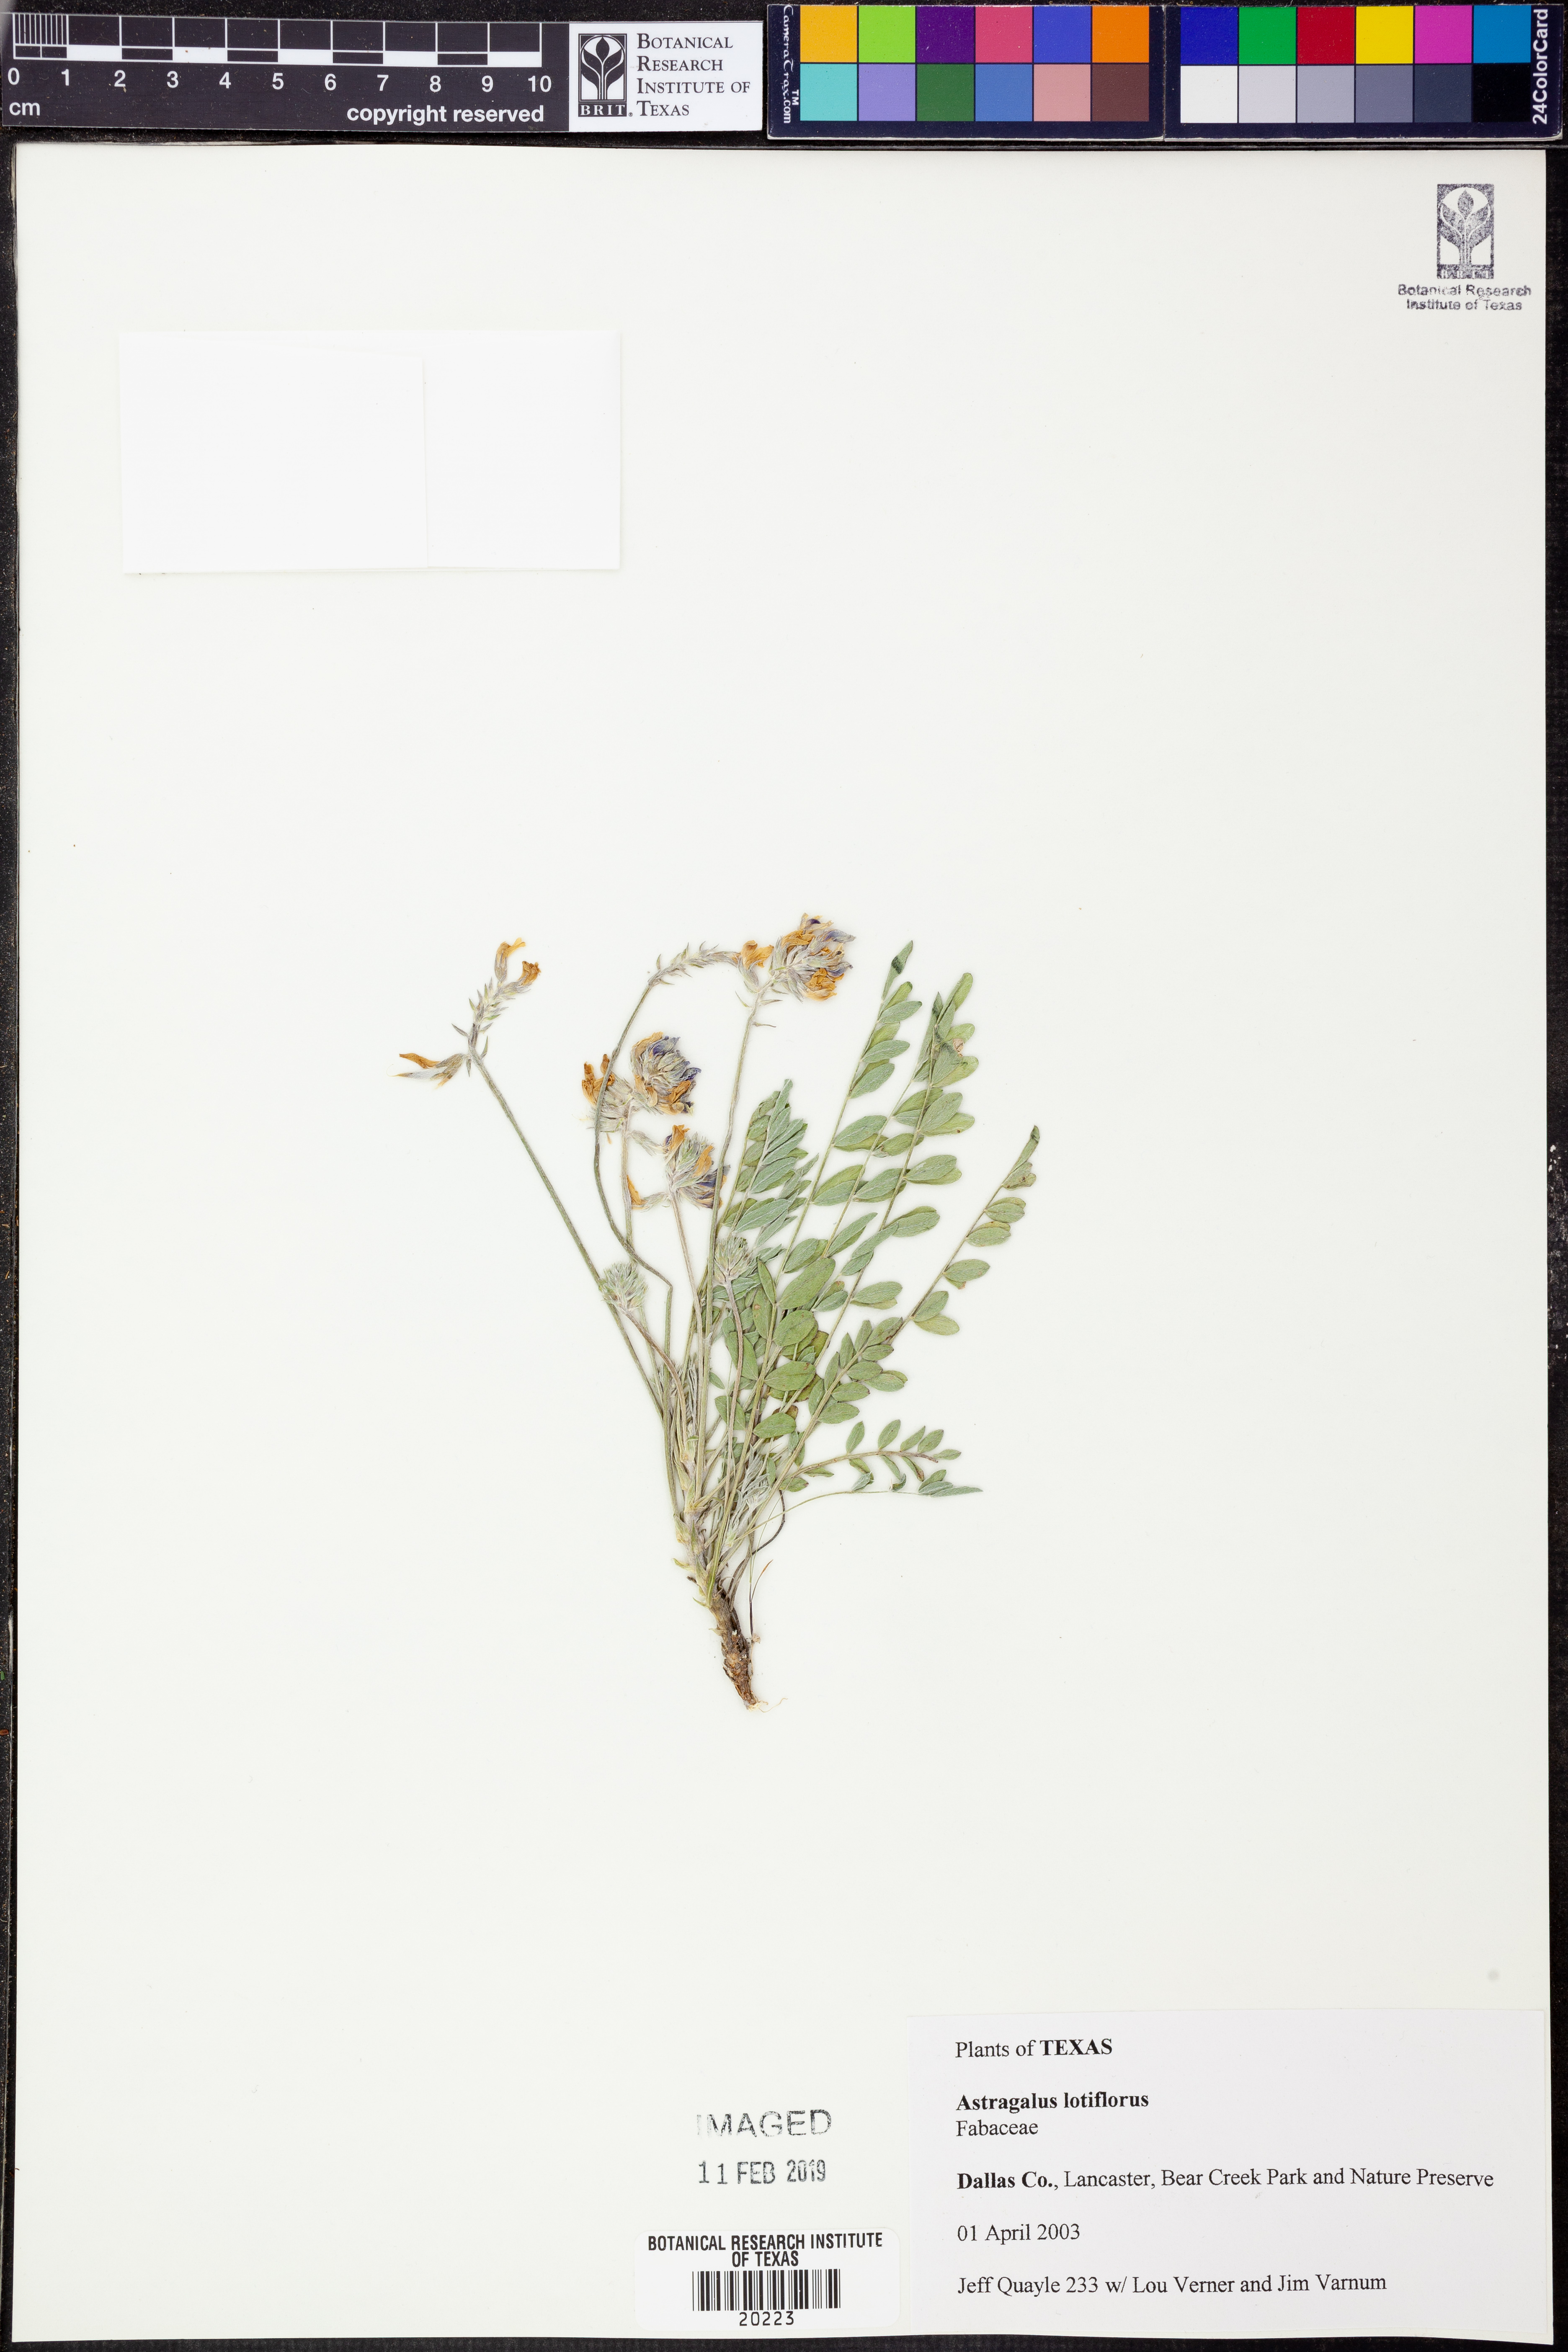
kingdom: Plantae
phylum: Tracheophyta
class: Magnoliopsida
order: Fabales
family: Fabaceae
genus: Astragalus
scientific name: Astragalus lotiflorus
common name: Lotus milk-vetch
